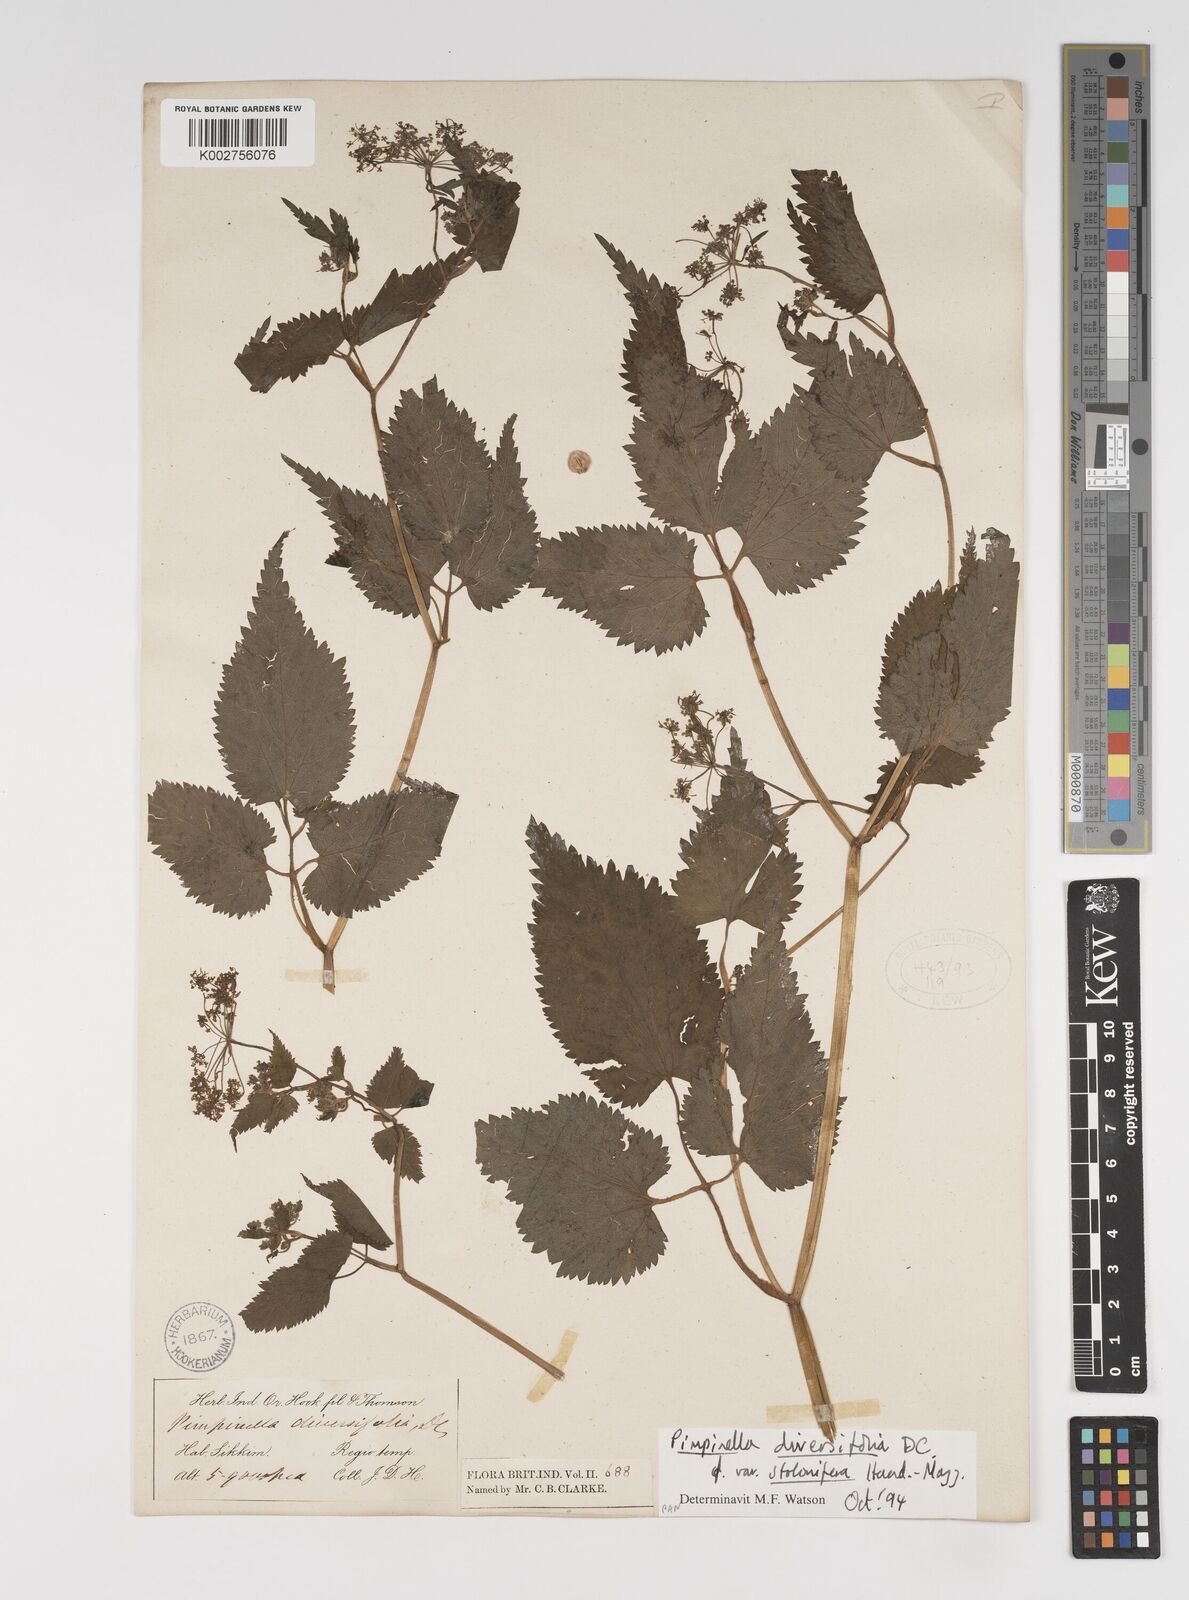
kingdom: Plantae
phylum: Tracheophyta
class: Magnoliopsida
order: Apiales
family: Apiaceae
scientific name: Apiaceae
